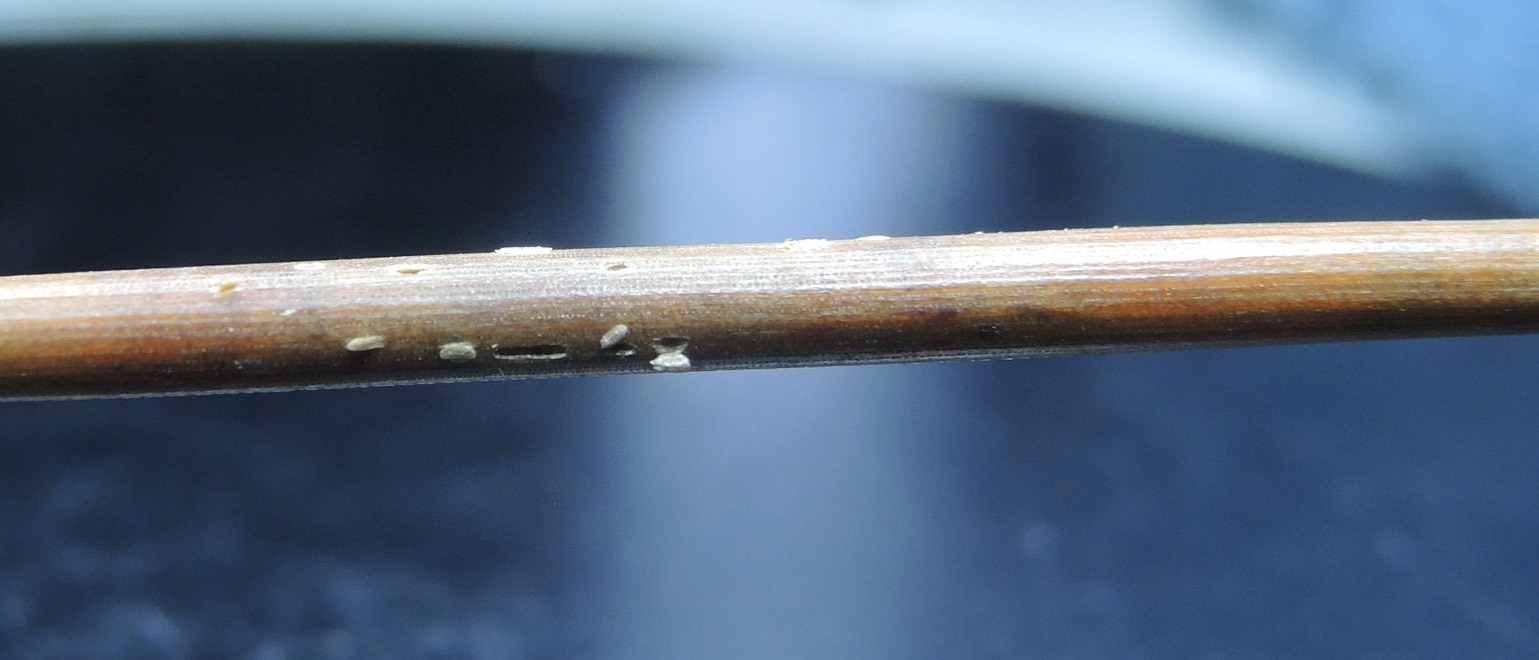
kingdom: Fungi
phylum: Ascomycota
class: Leotiomycetes
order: Chaetomellales
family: Marthamycetaceae
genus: Cyclaneusma
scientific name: Cyclaneusma minus
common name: tofliget nåleskive
